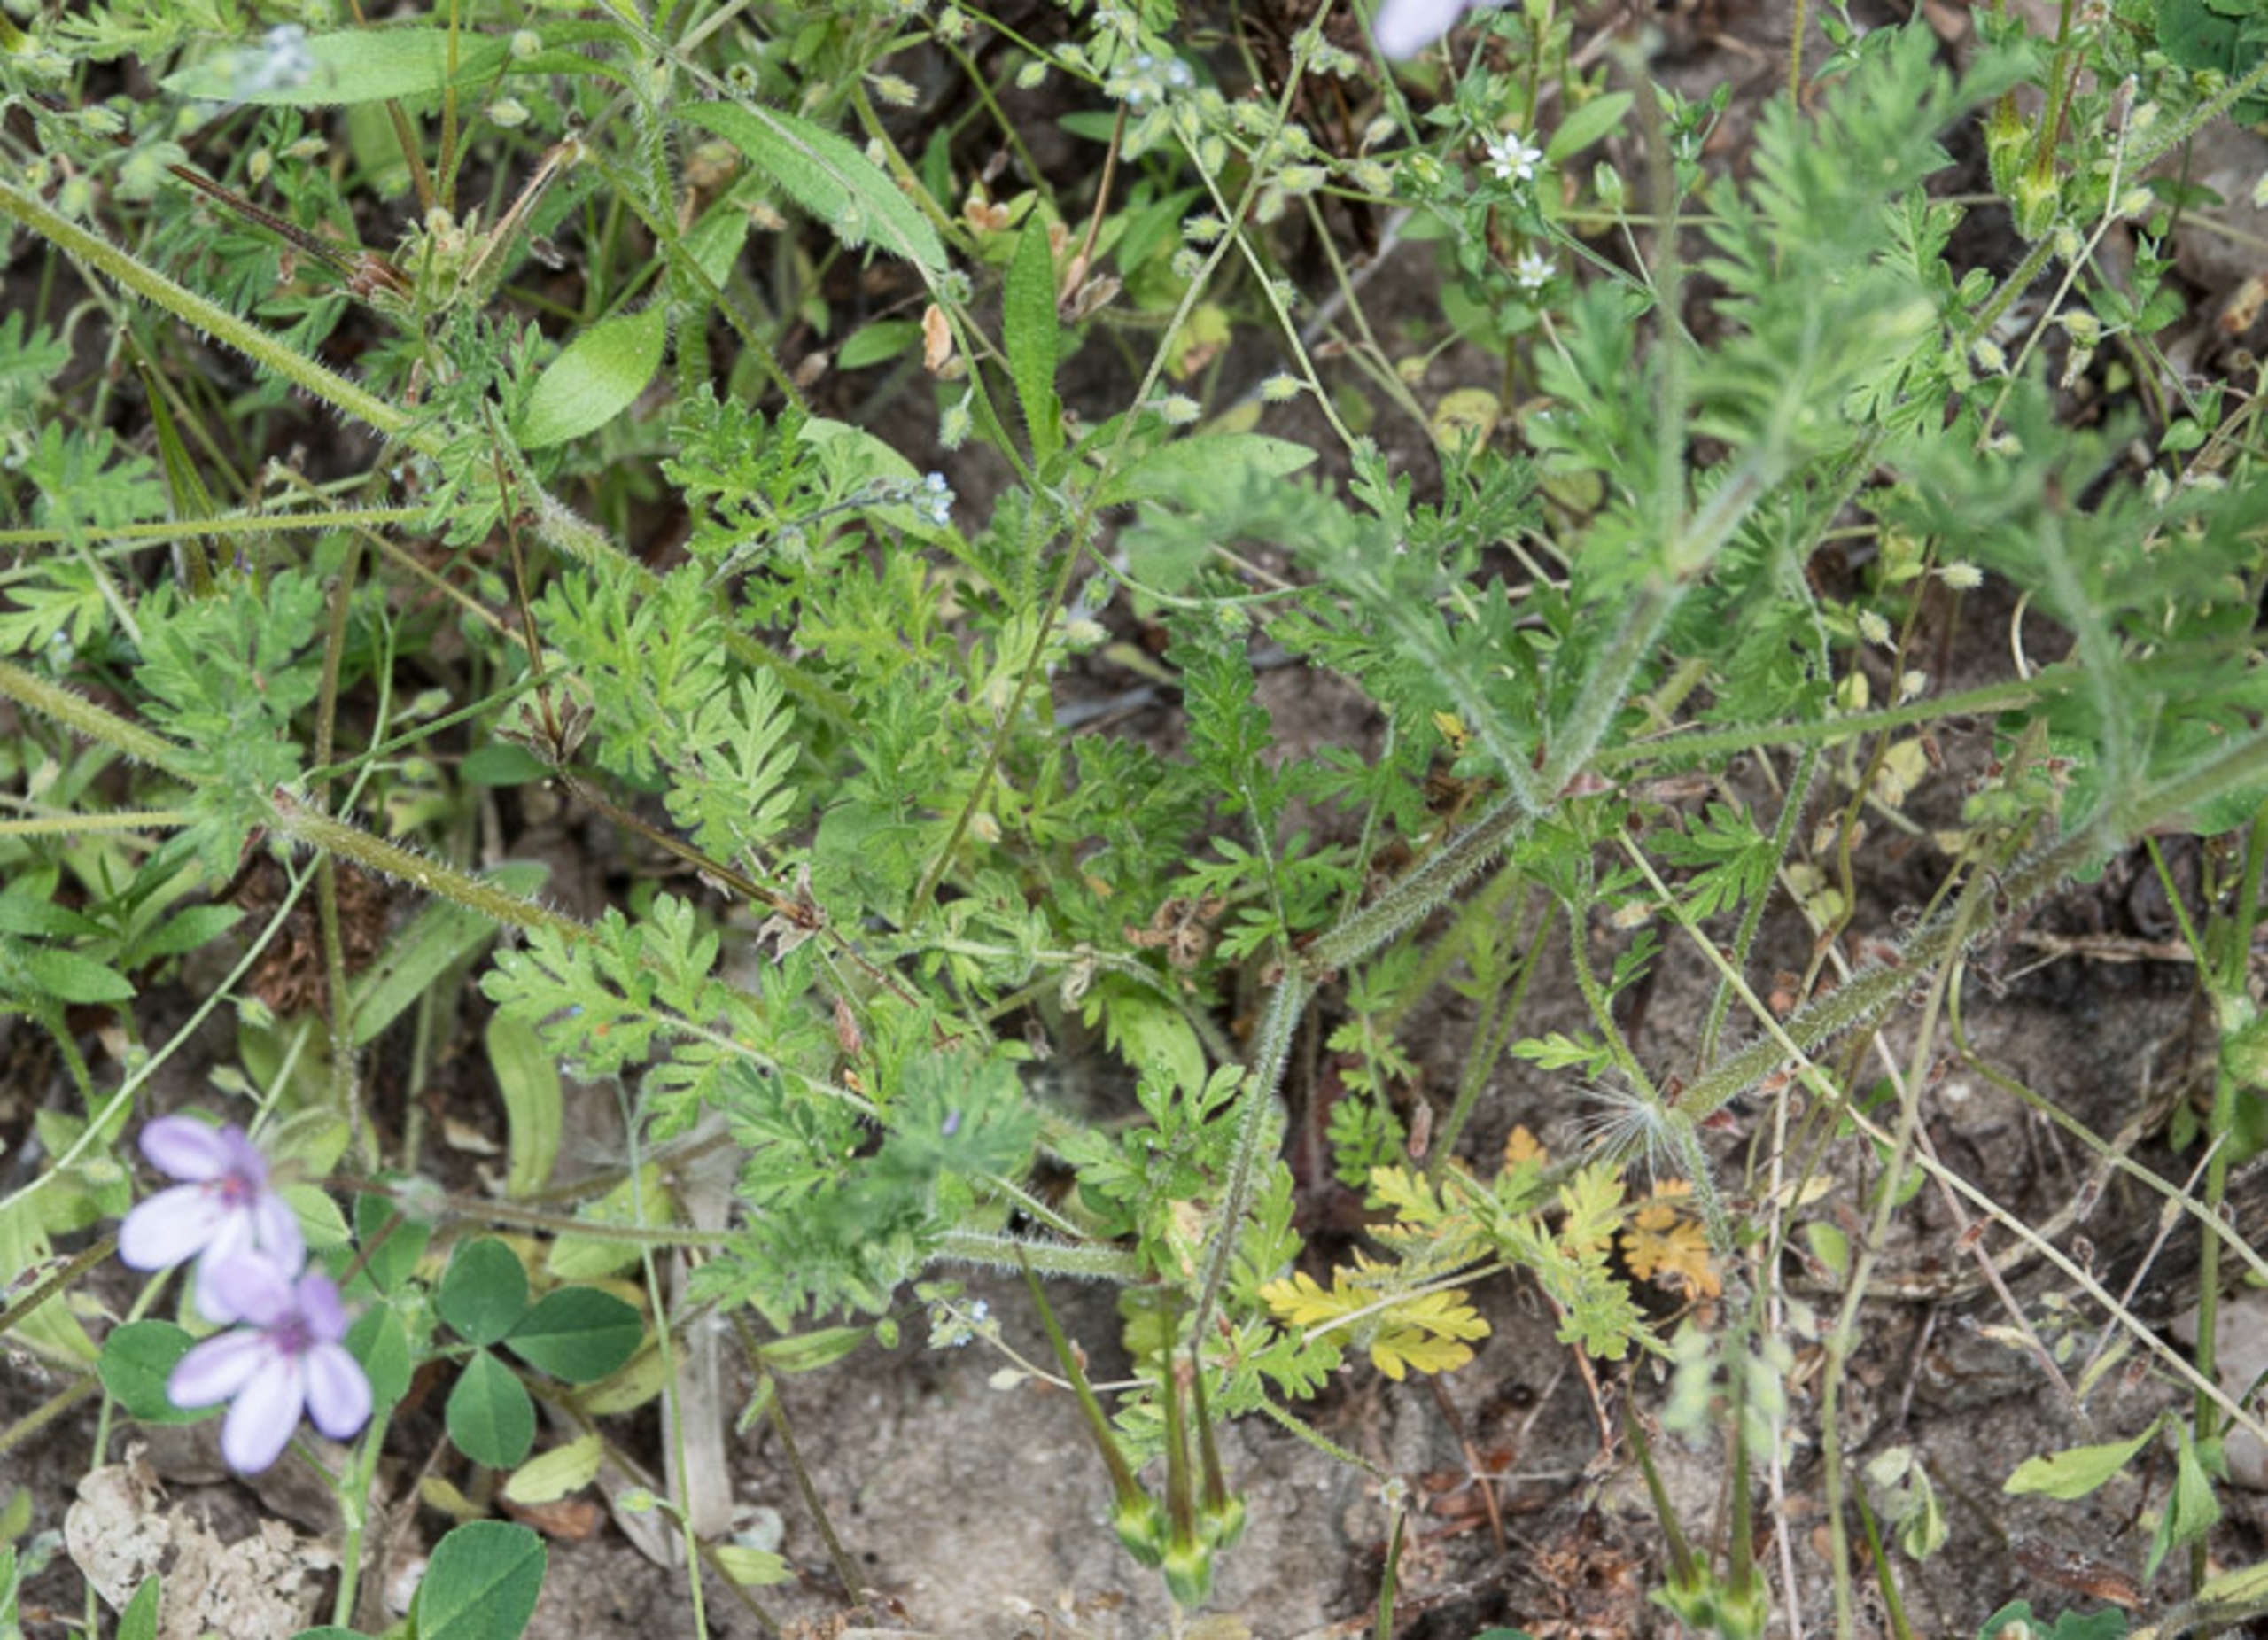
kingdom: Plantae
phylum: Tracheophyta
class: Magnoliopsida
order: Geraniales
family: Geraniaceae
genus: Erodium
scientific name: Erodium cicutarium
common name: Hejrenæb
